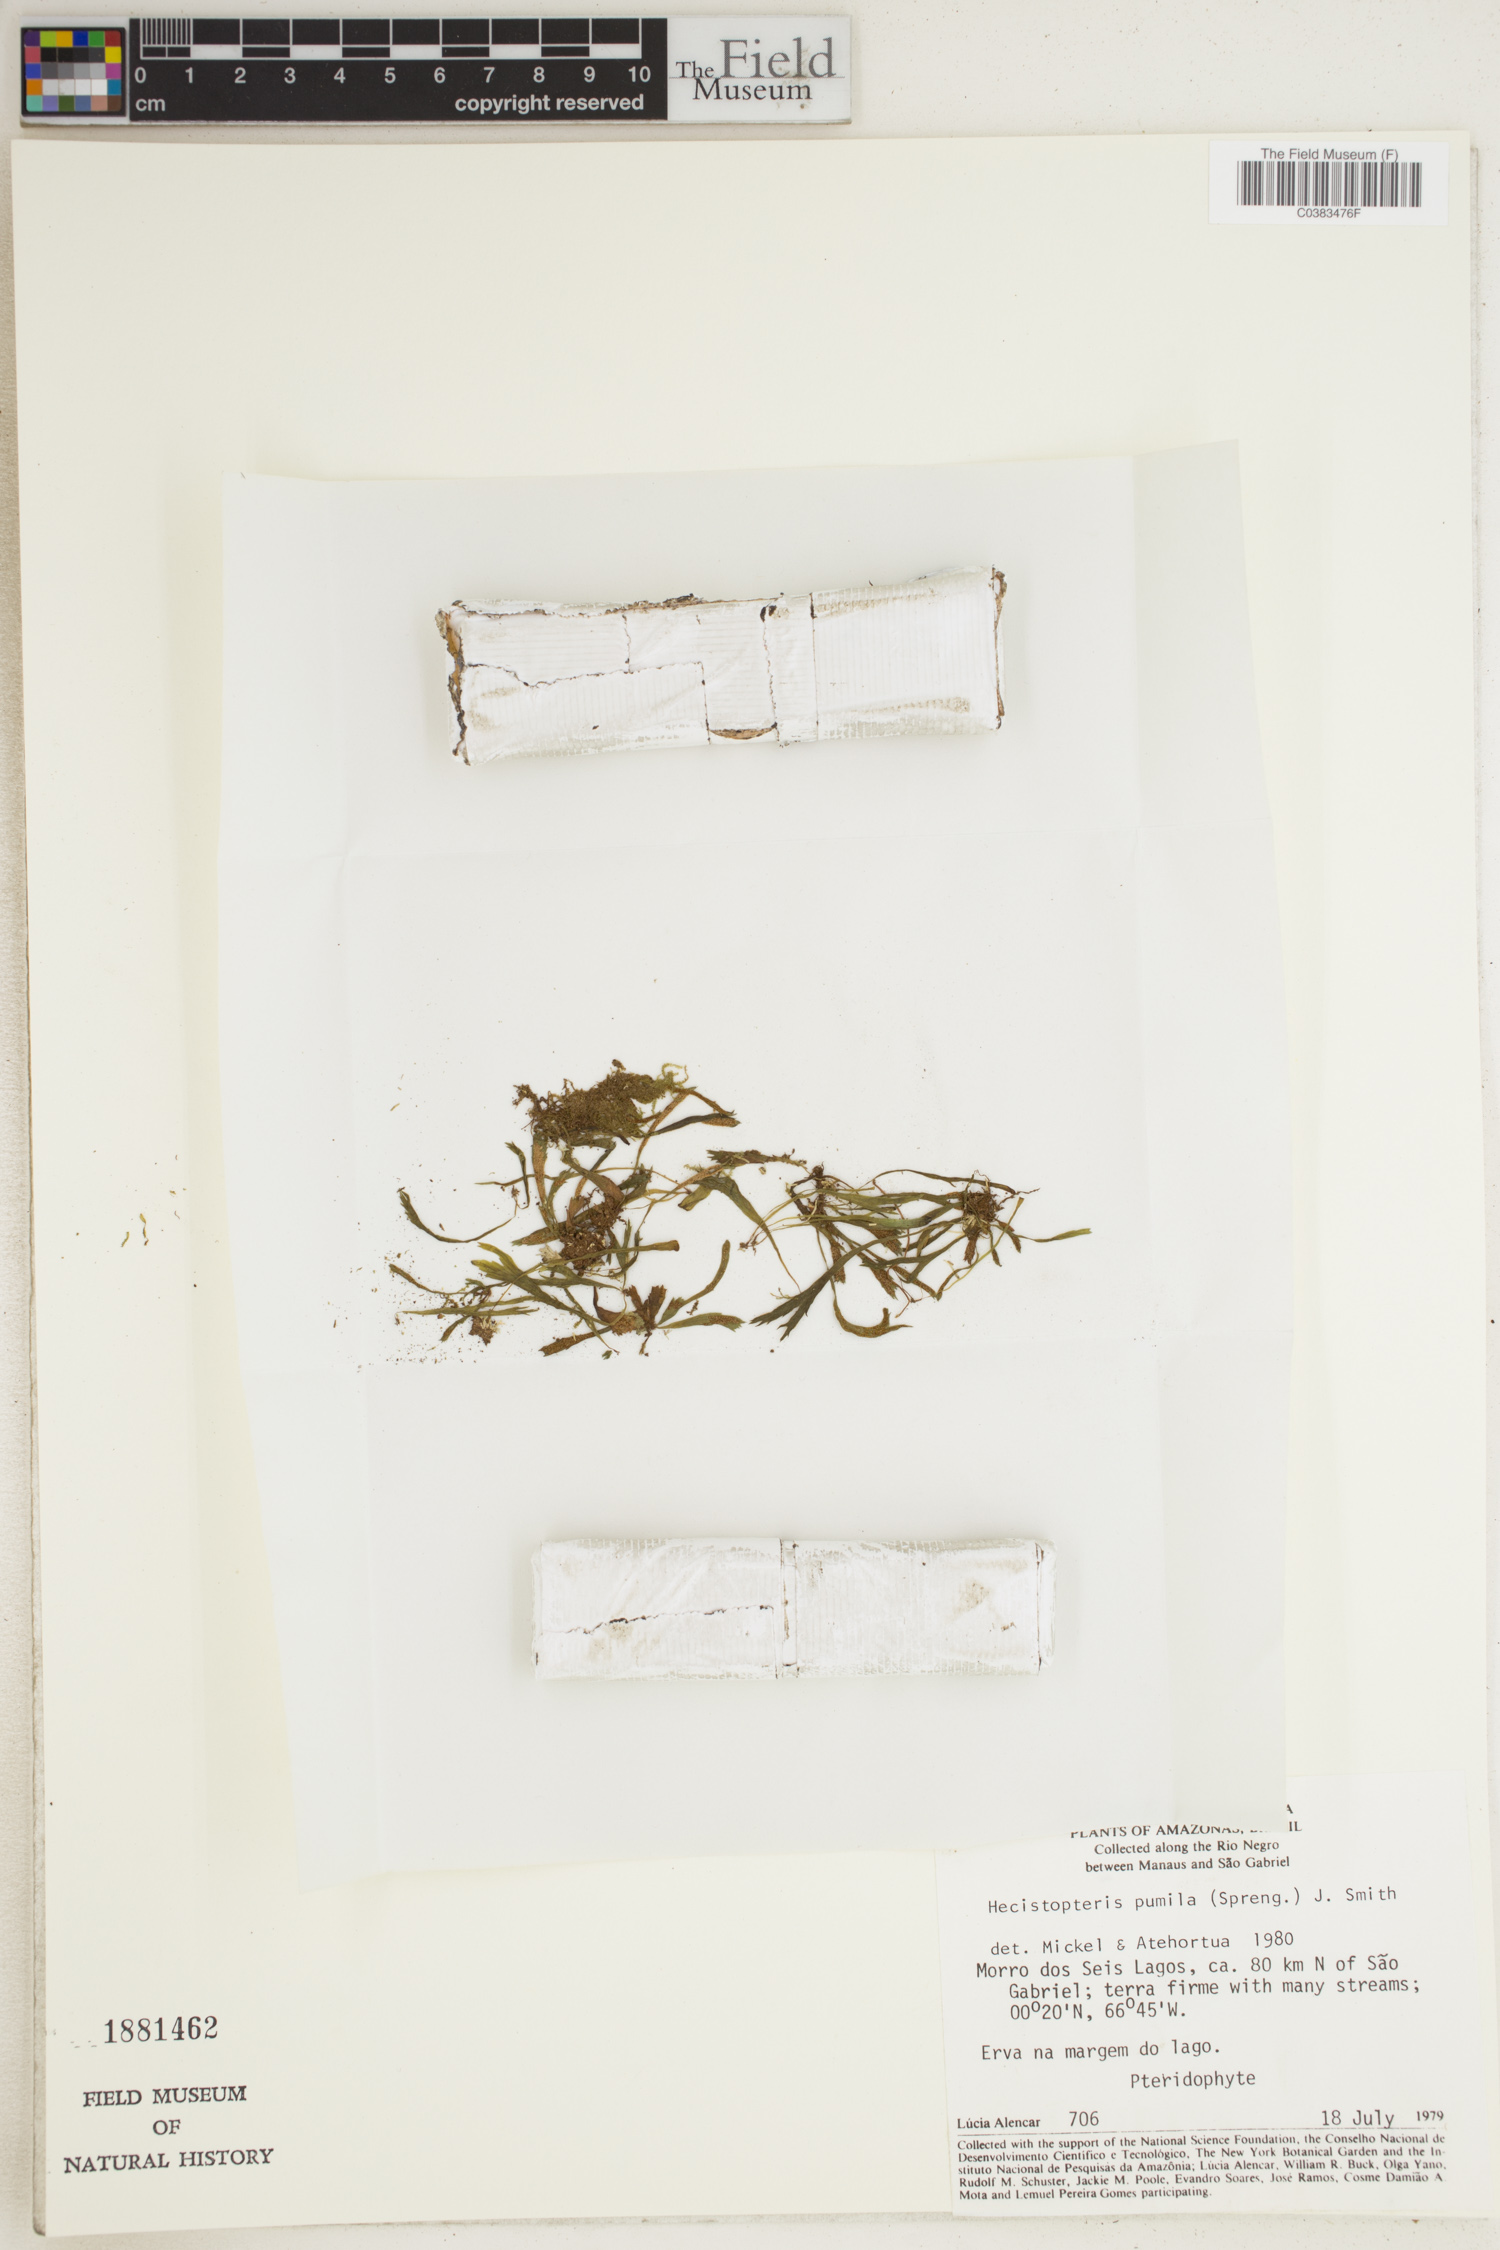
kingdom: Plantae
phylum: Tracheophyta
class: Polypodiopsida
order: Polypodiales
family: Pteridaceae
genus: Hecistopteris
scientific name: Hecistopteris pumila
